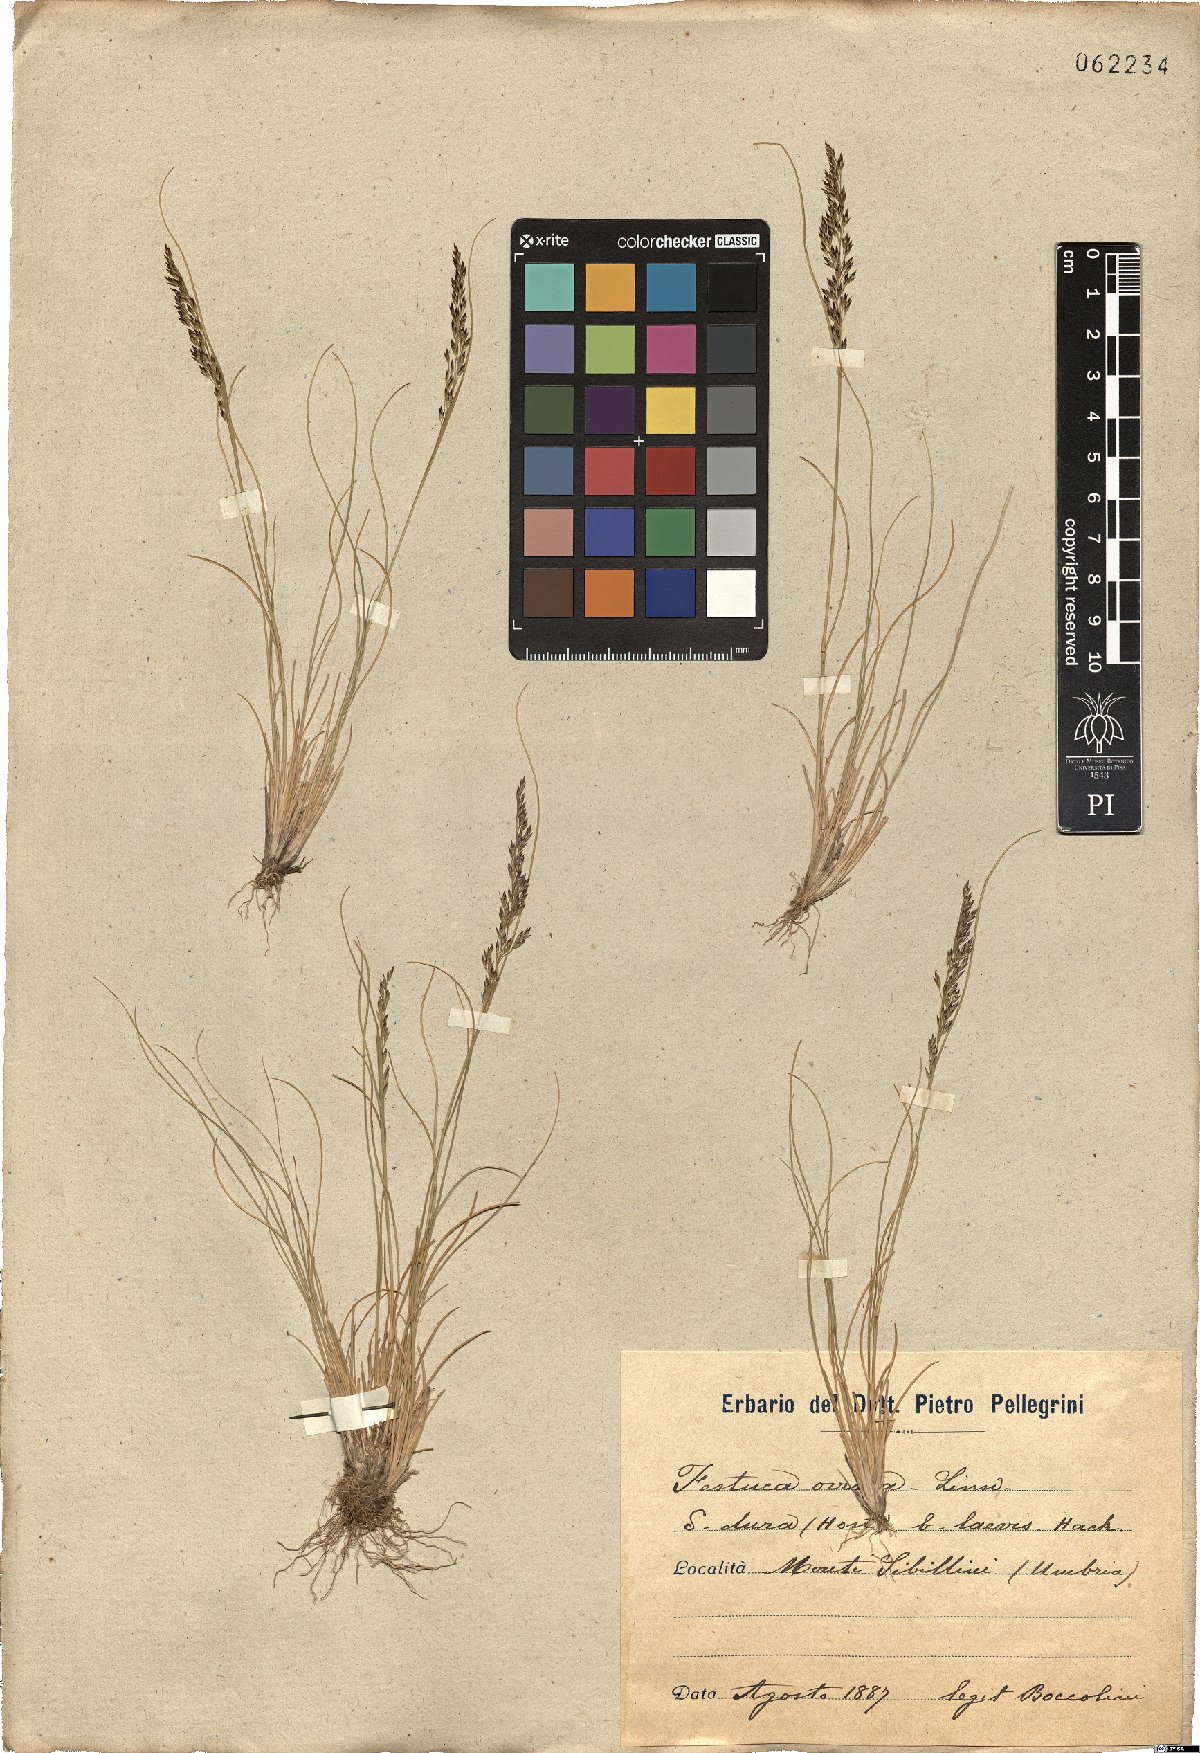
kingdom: Plantae
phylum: Tracheophyta
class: Liliopsida
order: Poales
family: Poaceae
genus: Festuca
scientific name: Festuca circummediterranea
